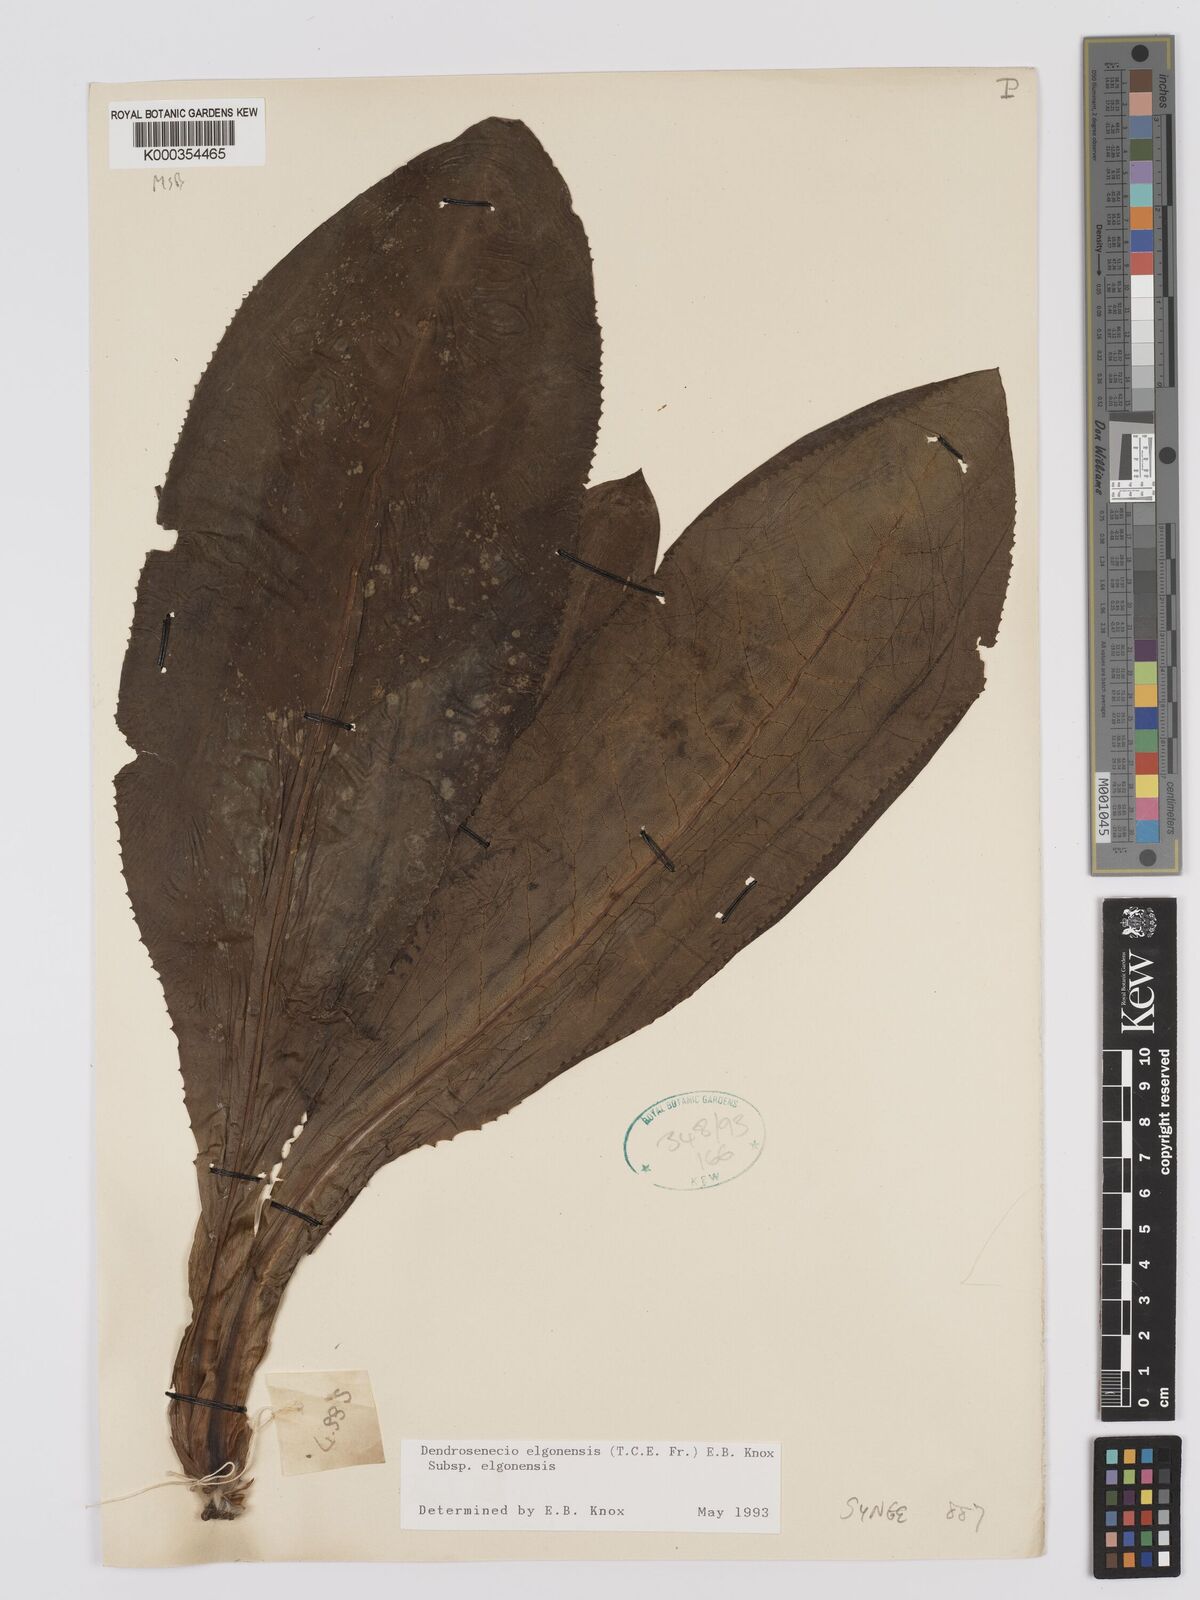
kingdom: Plantae
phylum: Tracheophyta
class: Magnoliopsida
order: Asterales
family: Asteraceae
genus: Dendrosenecio
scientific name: Dendrosenecio elgonensis
